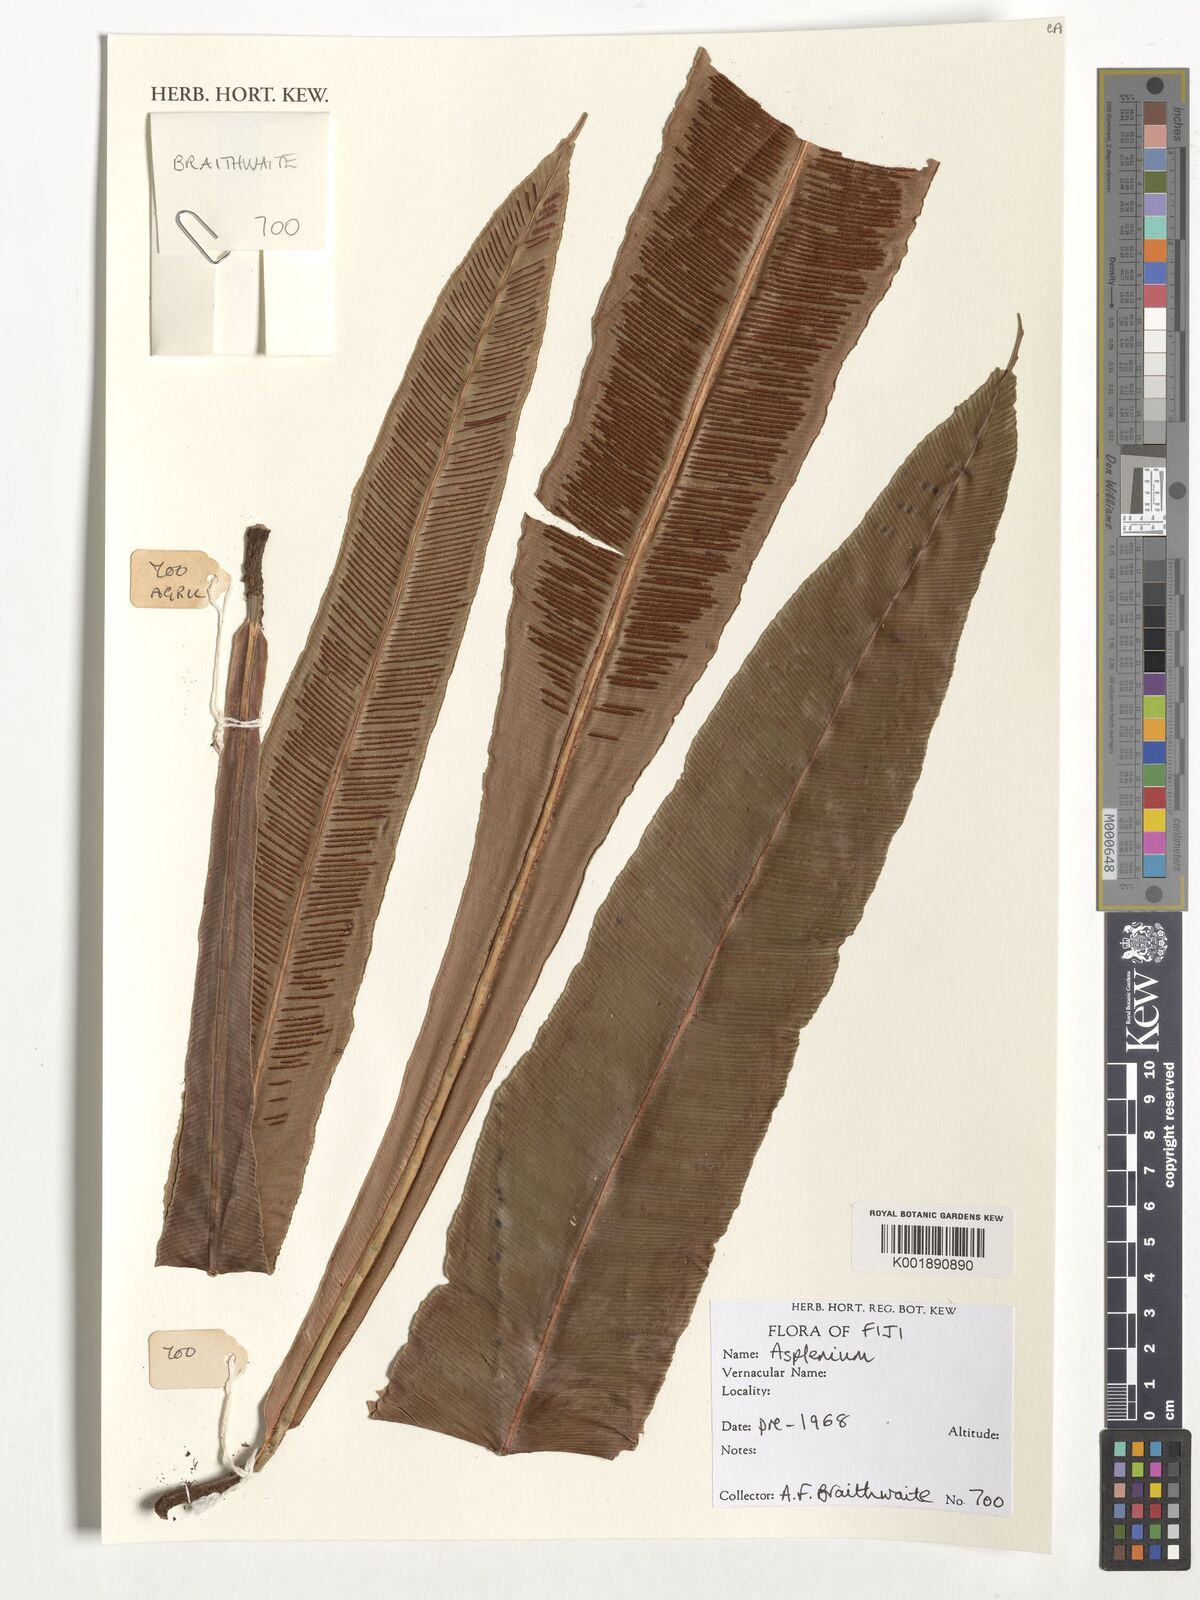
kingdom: Plantae
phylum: Tracheophyta
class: Polypodiopsida
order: Polypodiales
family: Aspleniaceae
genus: Asplenium
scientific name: Asplenium
